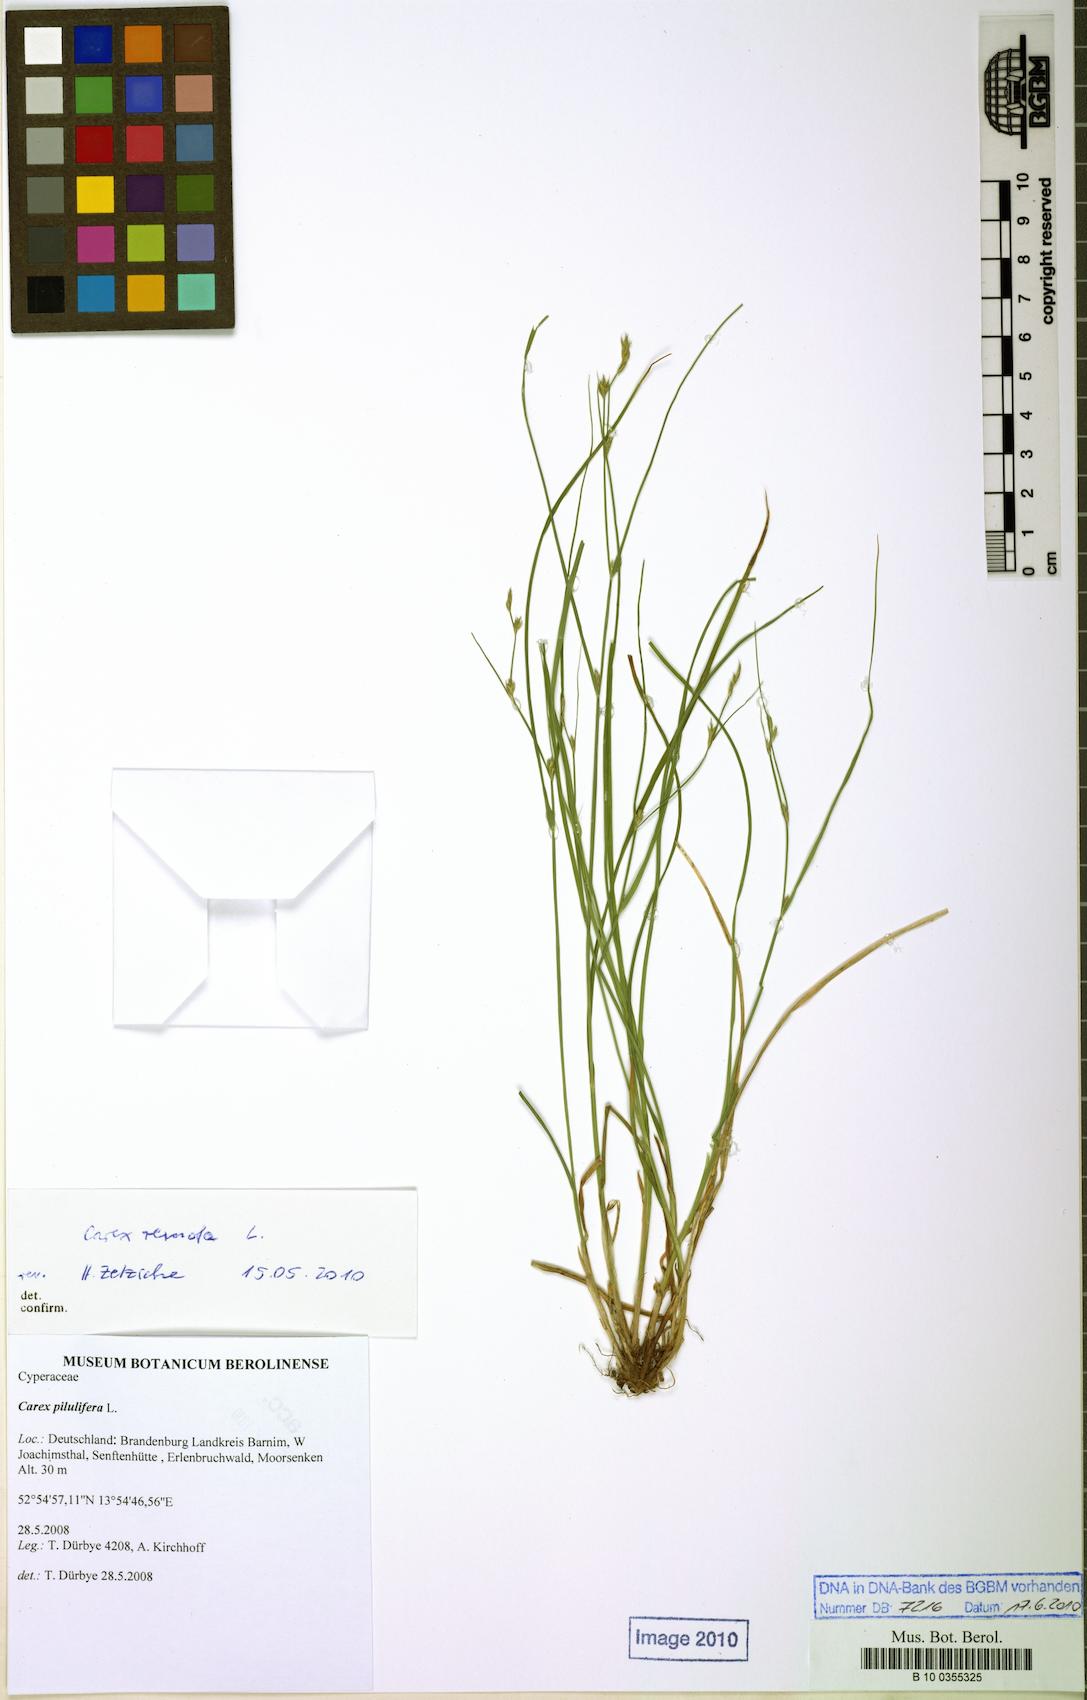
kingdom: Plantae
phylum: Tracheophyta
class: Liliopsida
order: Poales
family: Cyperaceae
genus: Carex
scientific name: Carex remota
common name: Remote sedge
